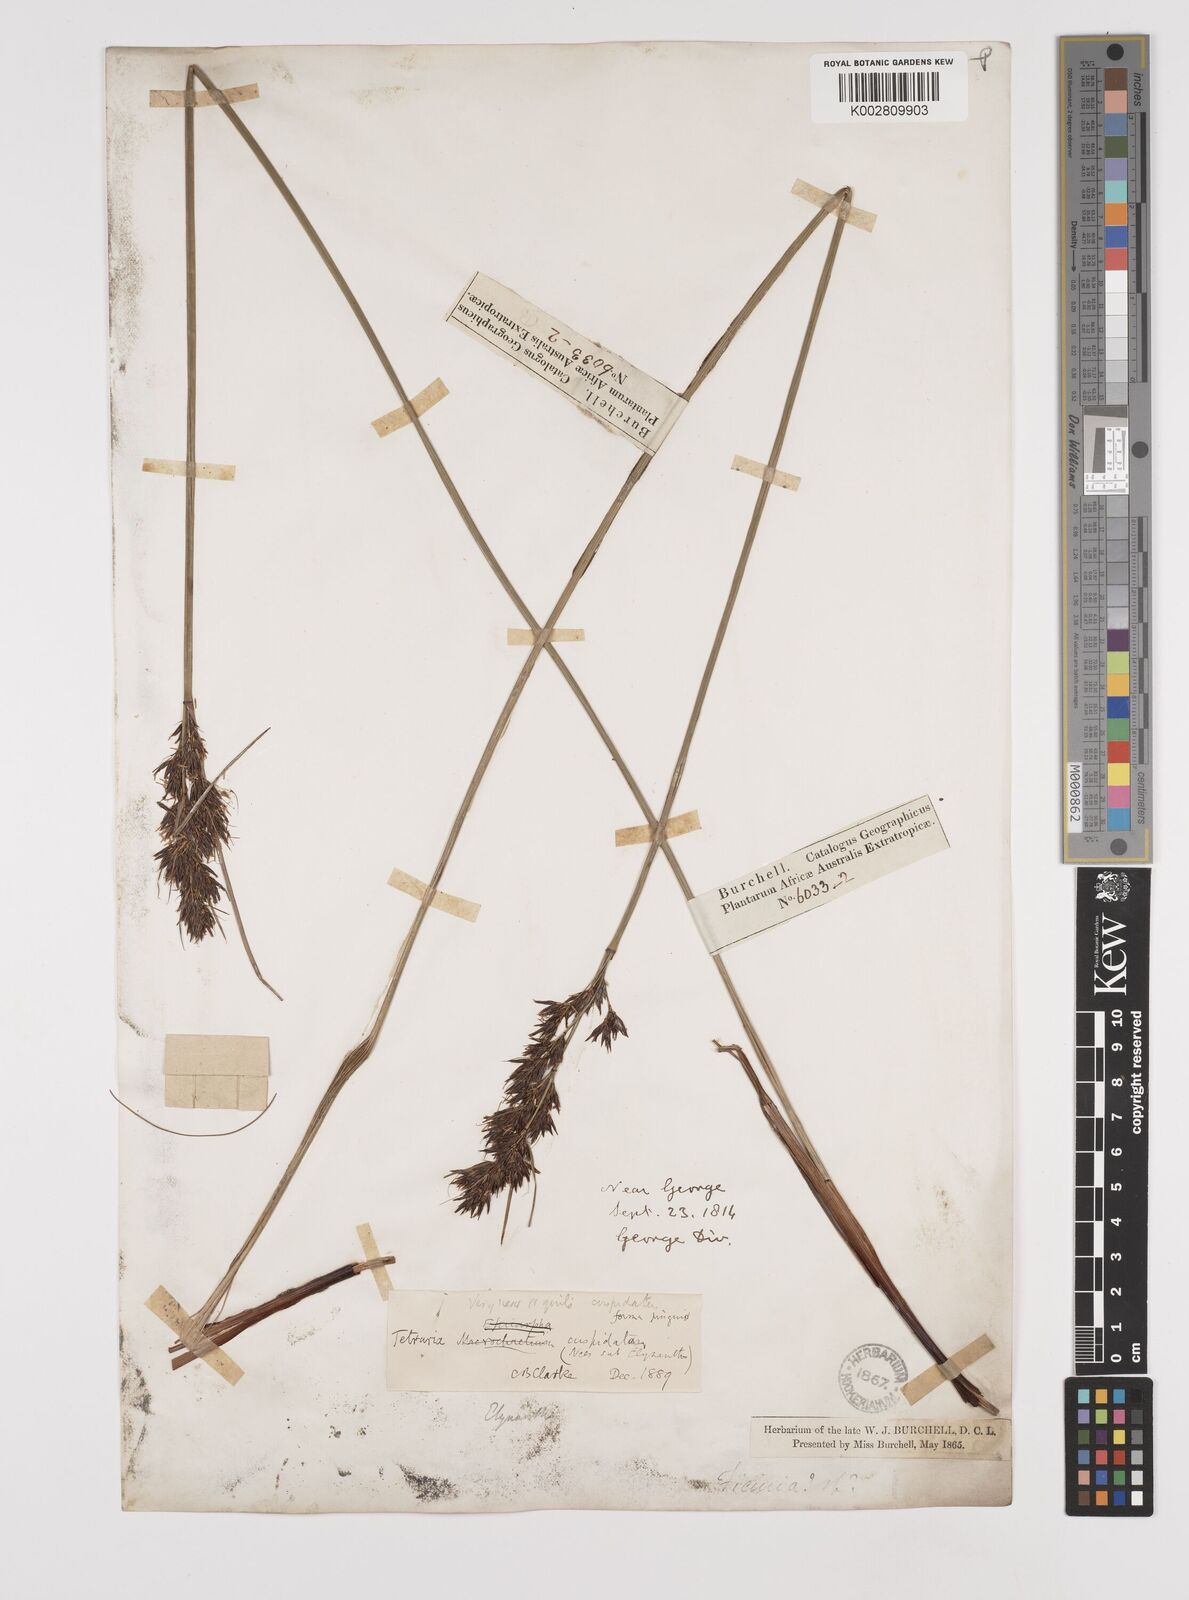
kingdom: Plantae
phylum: Tracheophyta
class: Liliopsida
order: Poales
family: Cyperaceae
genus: Schoenus
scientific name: Schoenus loreus
